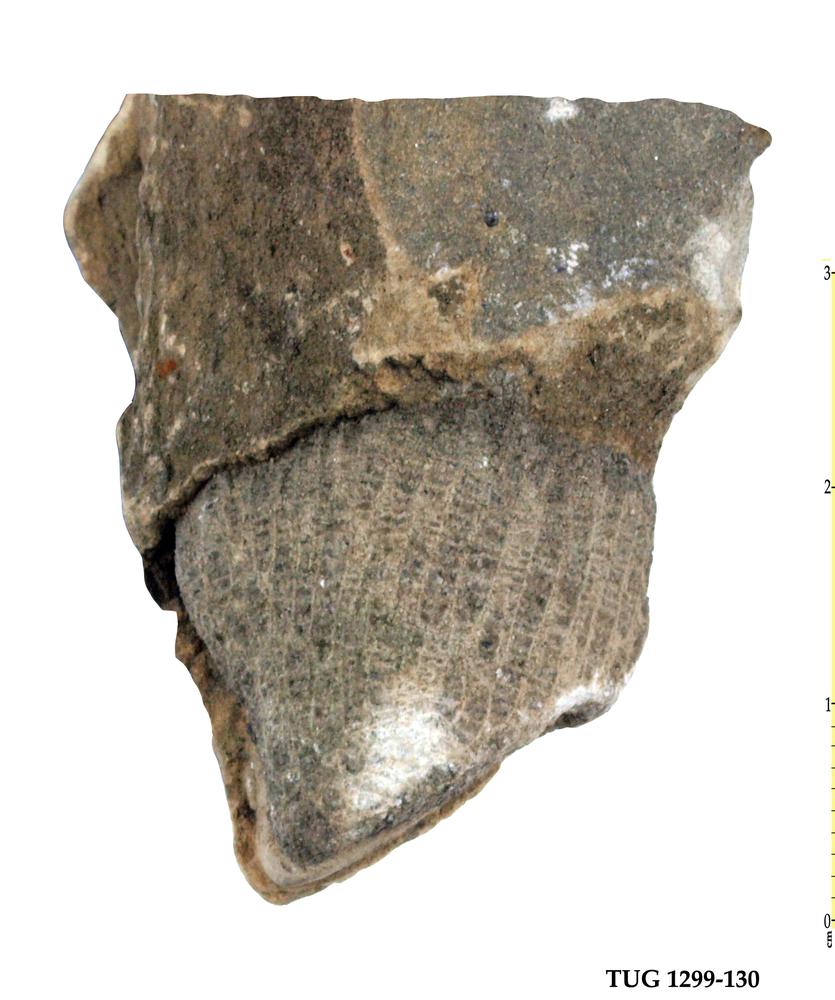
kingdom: Animalia
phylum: Cnidaria
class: Anthozoa
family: Favositidae
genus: Paleofavosites
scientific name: Paleofavosites
